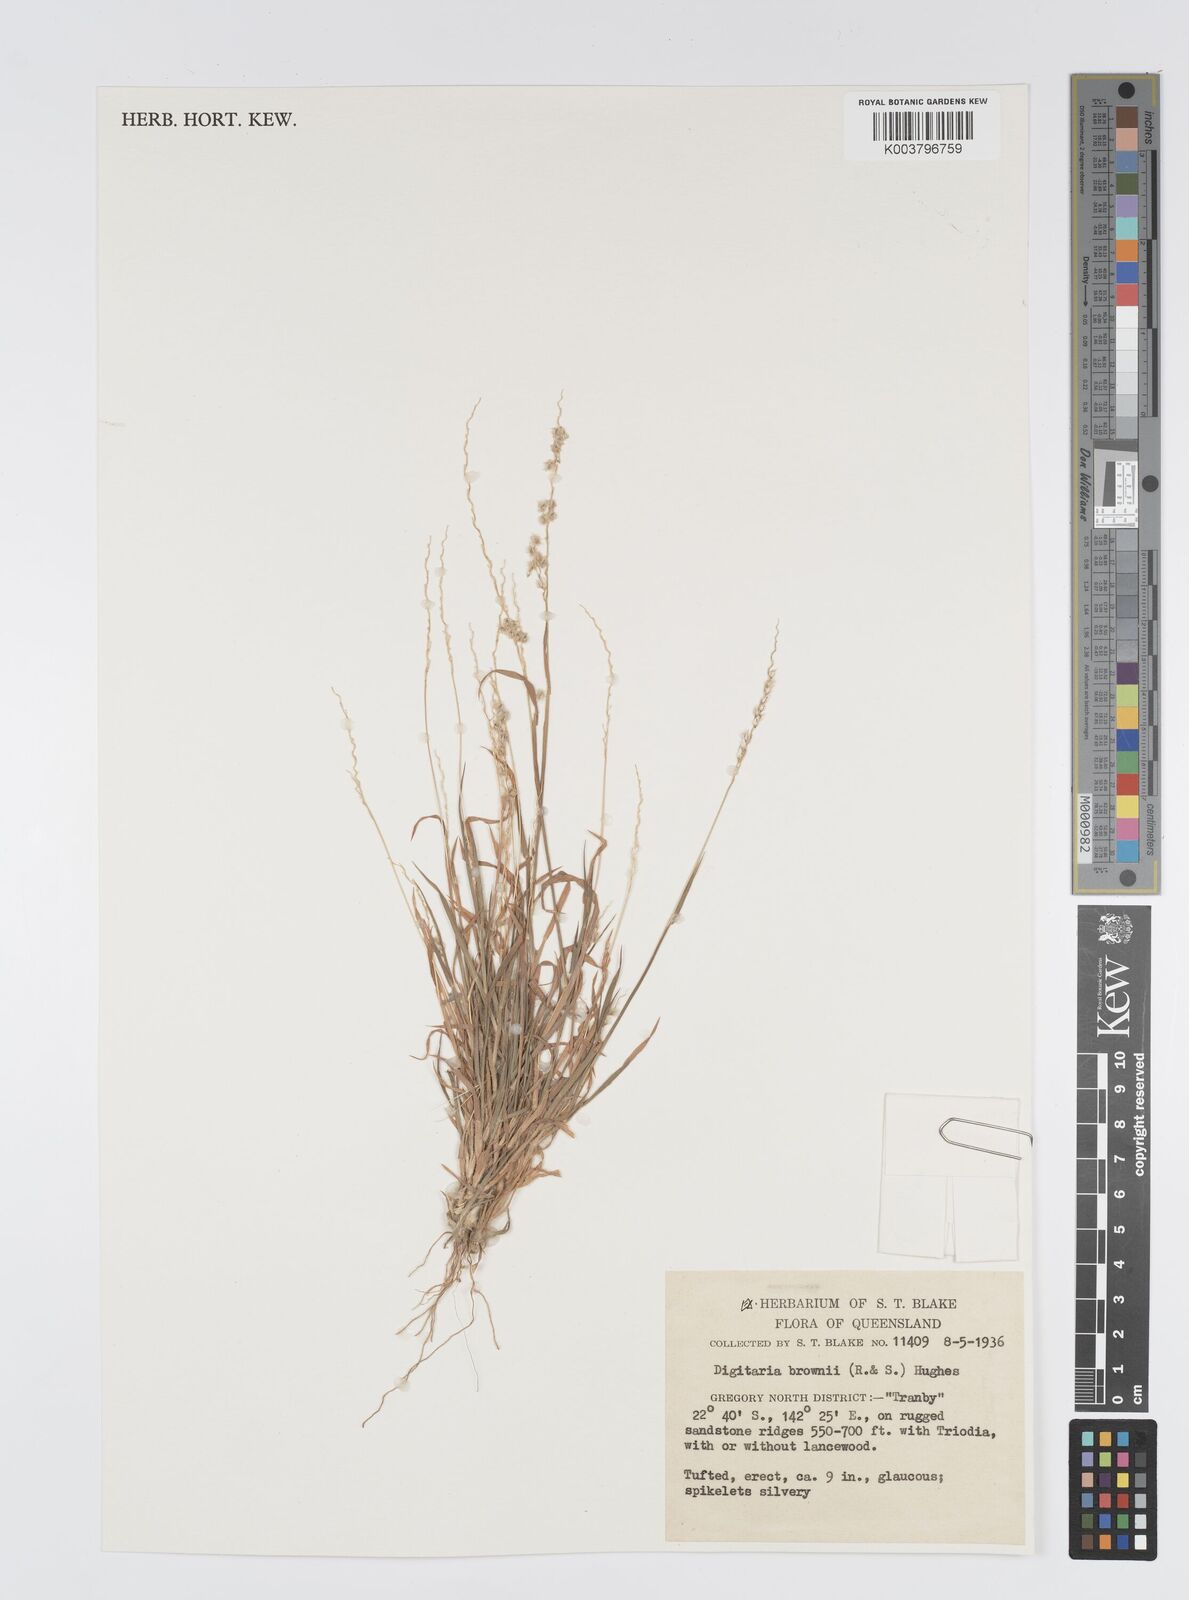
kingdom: Plantae
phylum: Tracheophyta
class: Liliopsida
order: Poales
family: Poaceae
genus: Digitaria
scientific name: Digitaria brownii
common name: Cotton grass
